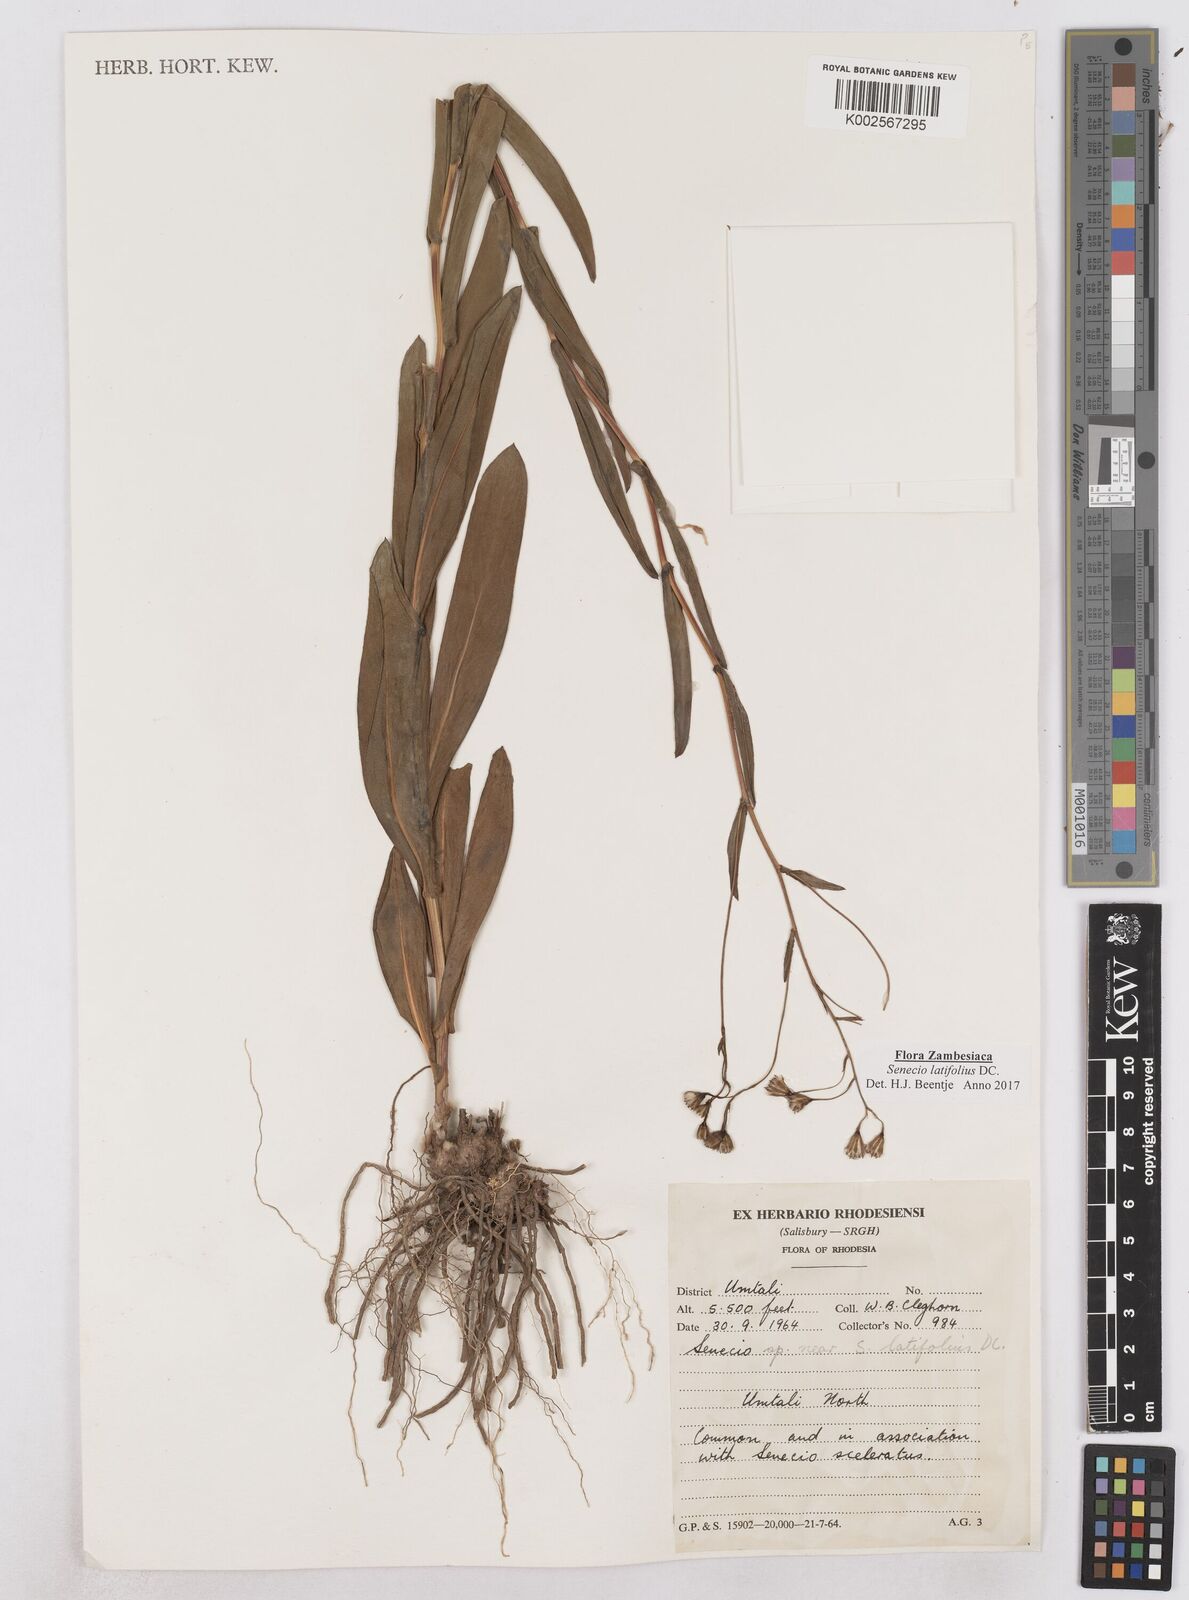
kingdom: Plantae
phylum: Tracheophyta
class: Magnoliopsida
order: Asterales
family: Asteraceae
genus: Senecio
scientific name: Senecio latifolius
